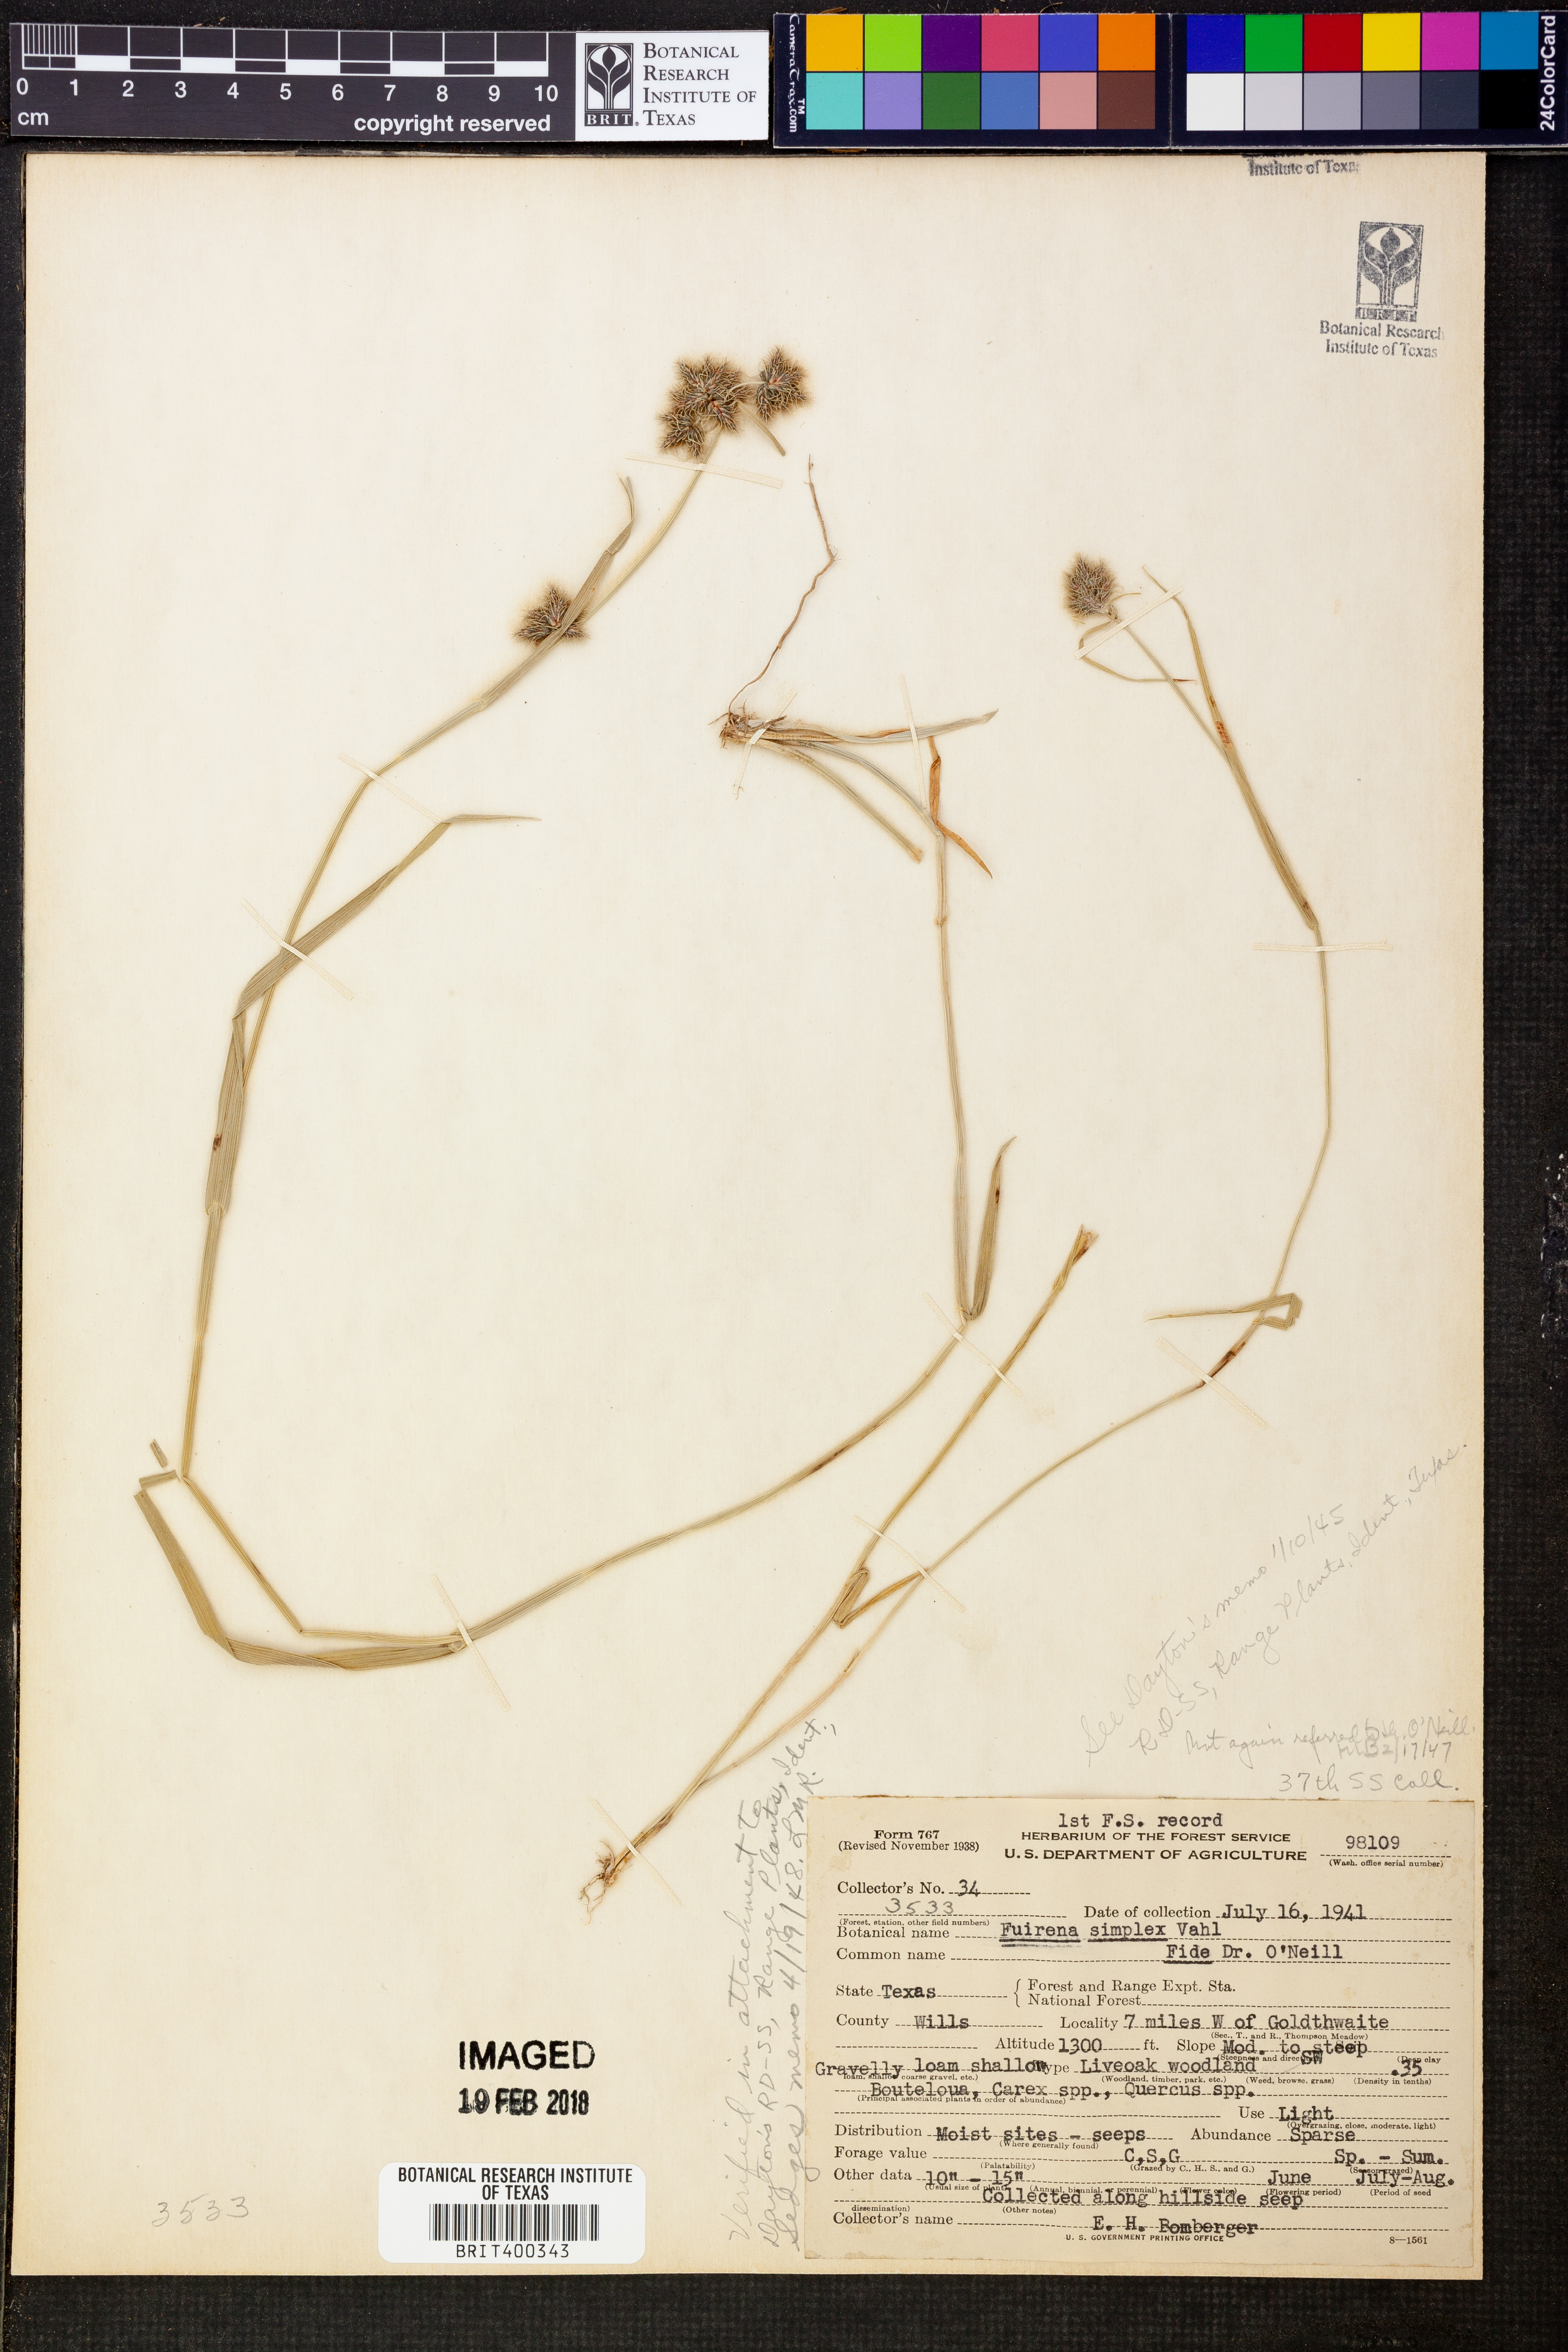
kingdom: Plantae
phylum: Tracheophyta
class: Liliopsida
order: Poales
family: Cyperaceae
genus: Fuirena
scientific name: Fuirena simplex
